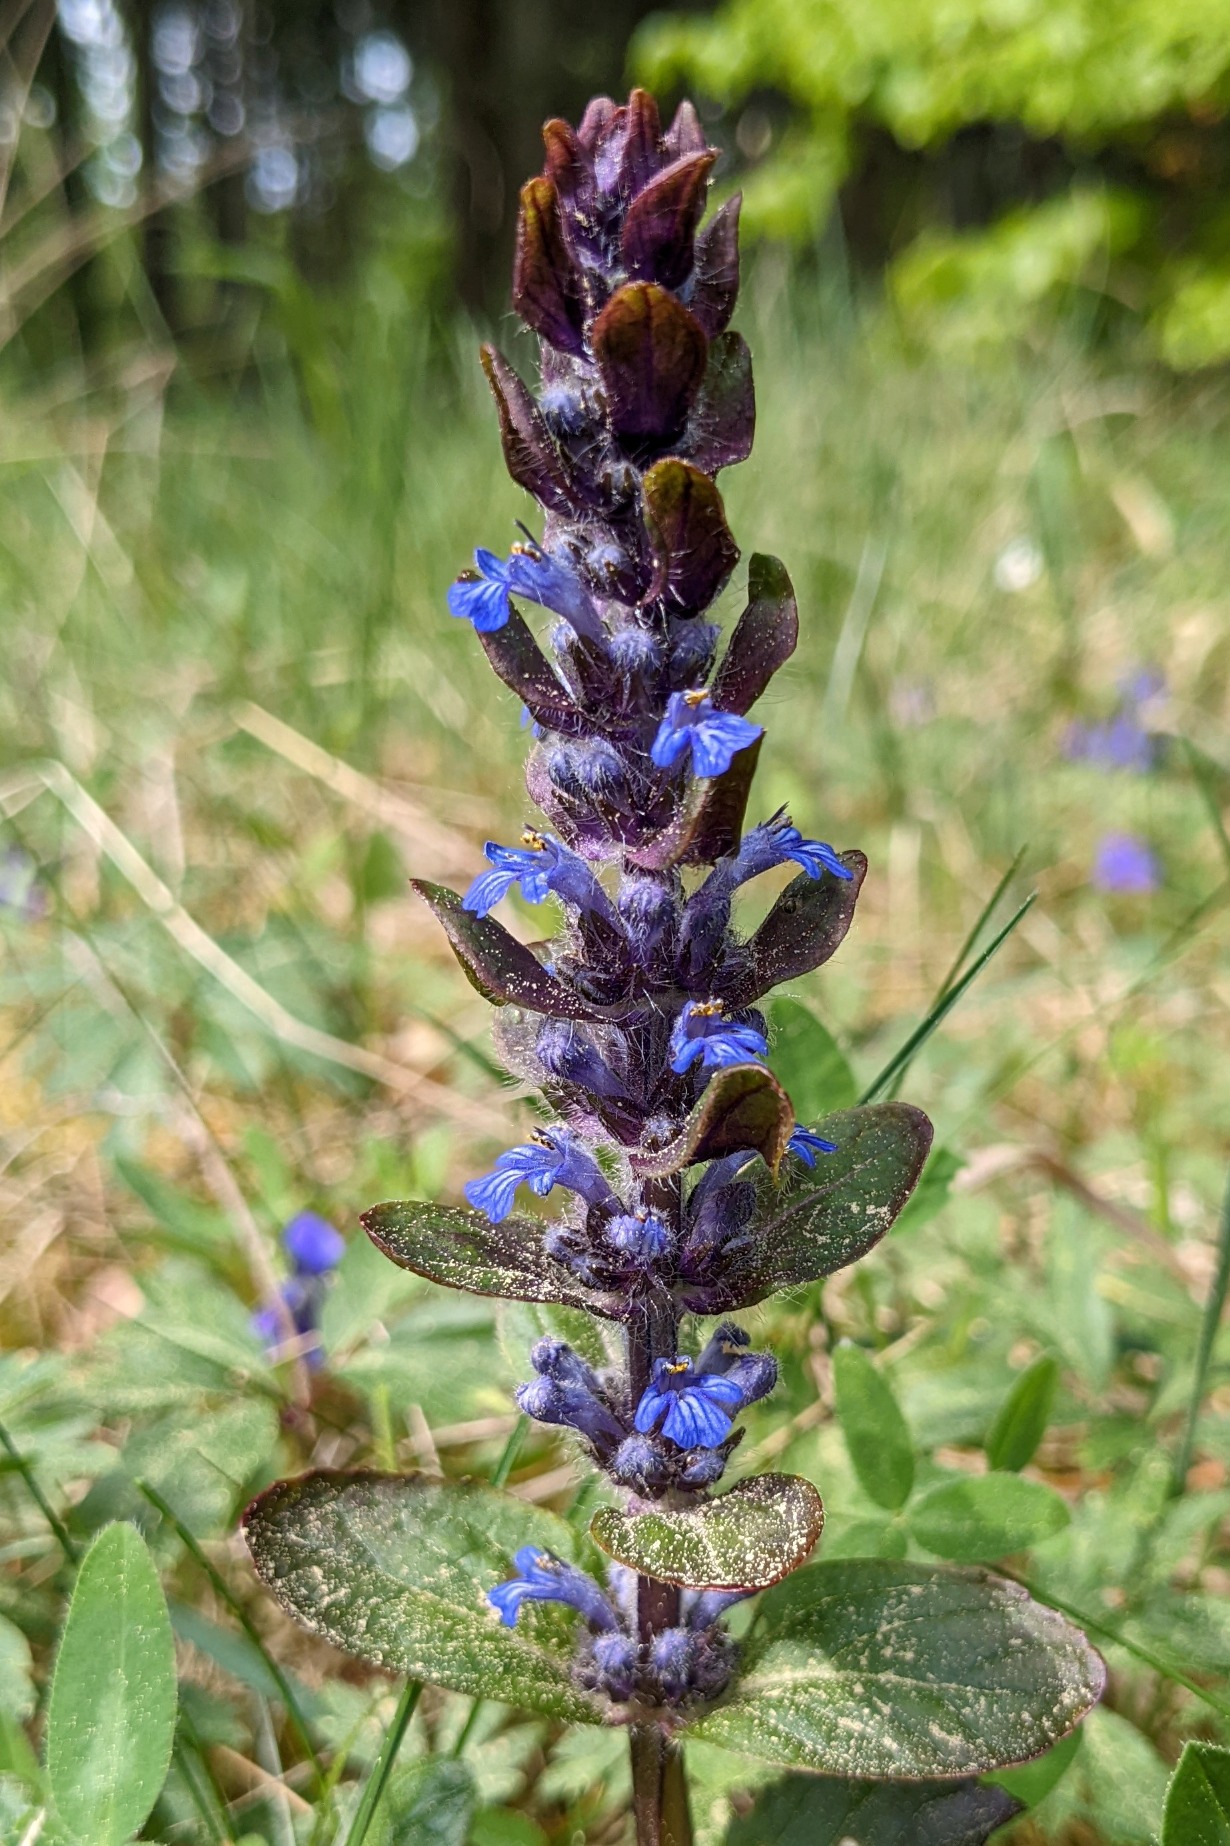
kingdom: Plantae
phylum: Tracheophyta
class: Magnoliopsida
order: Lamiales
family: Lamiaceae
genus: Ajuga
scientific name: Ajuga reptans
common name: Krybende læbeløs
